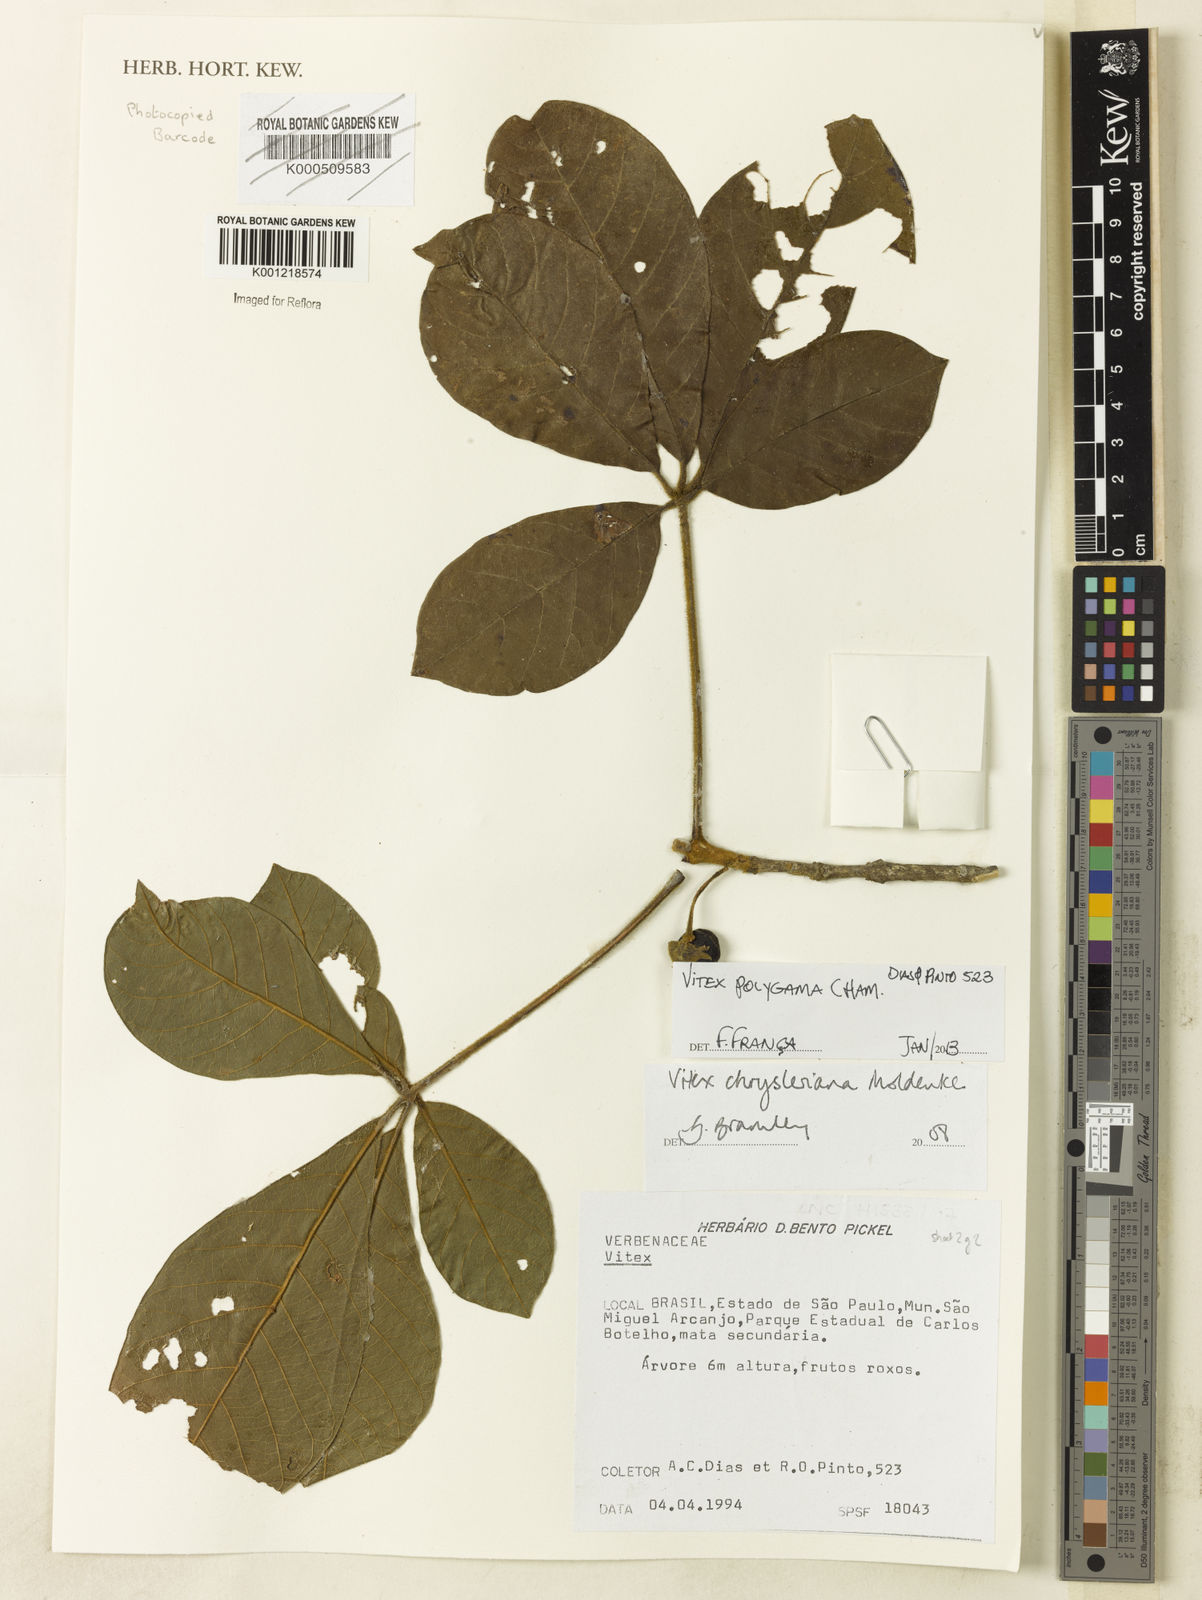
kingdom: Plantae
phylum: Tracheophyta
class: Magnoliopsida
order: Lamiales
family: Lamiaceae
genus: Vitex
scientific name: Vitex polygama
